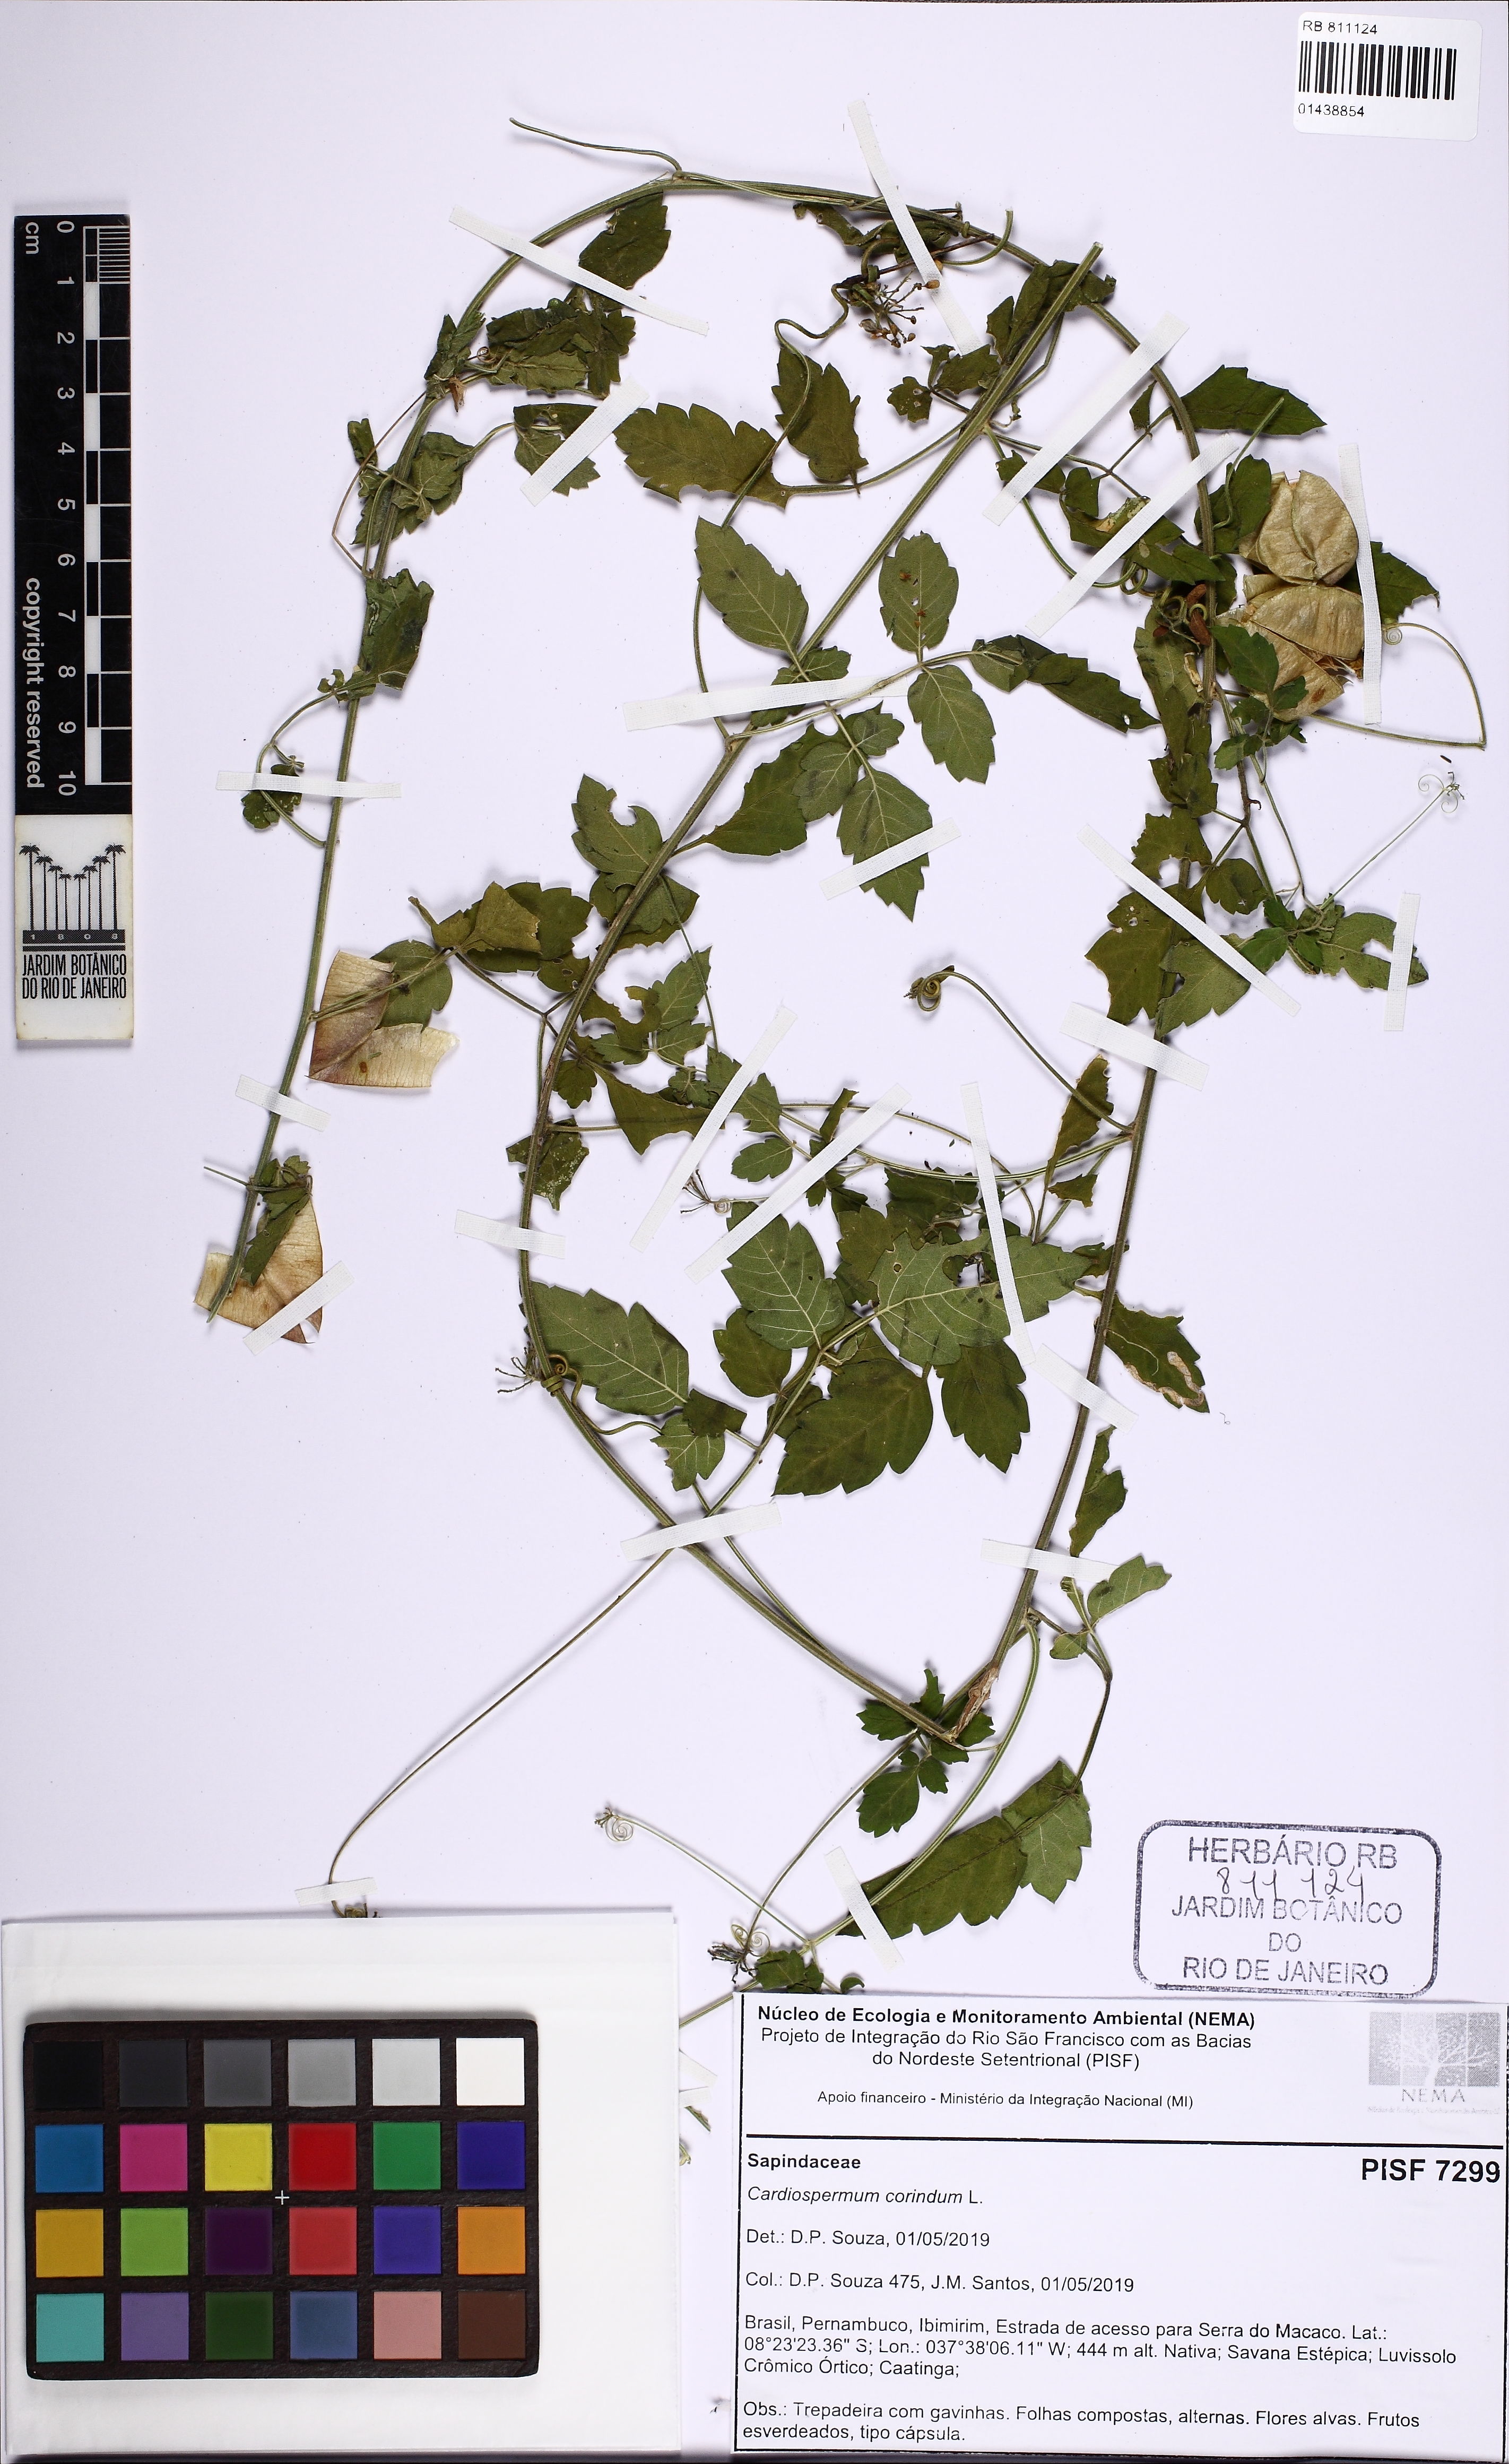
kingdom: Plantae
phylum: Tracheophyta
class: Magnoliopsida
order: Sapindales
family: Sapindaceae
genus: Cardiospermum
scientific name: Cardiospermum corindum
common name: Faux persil
